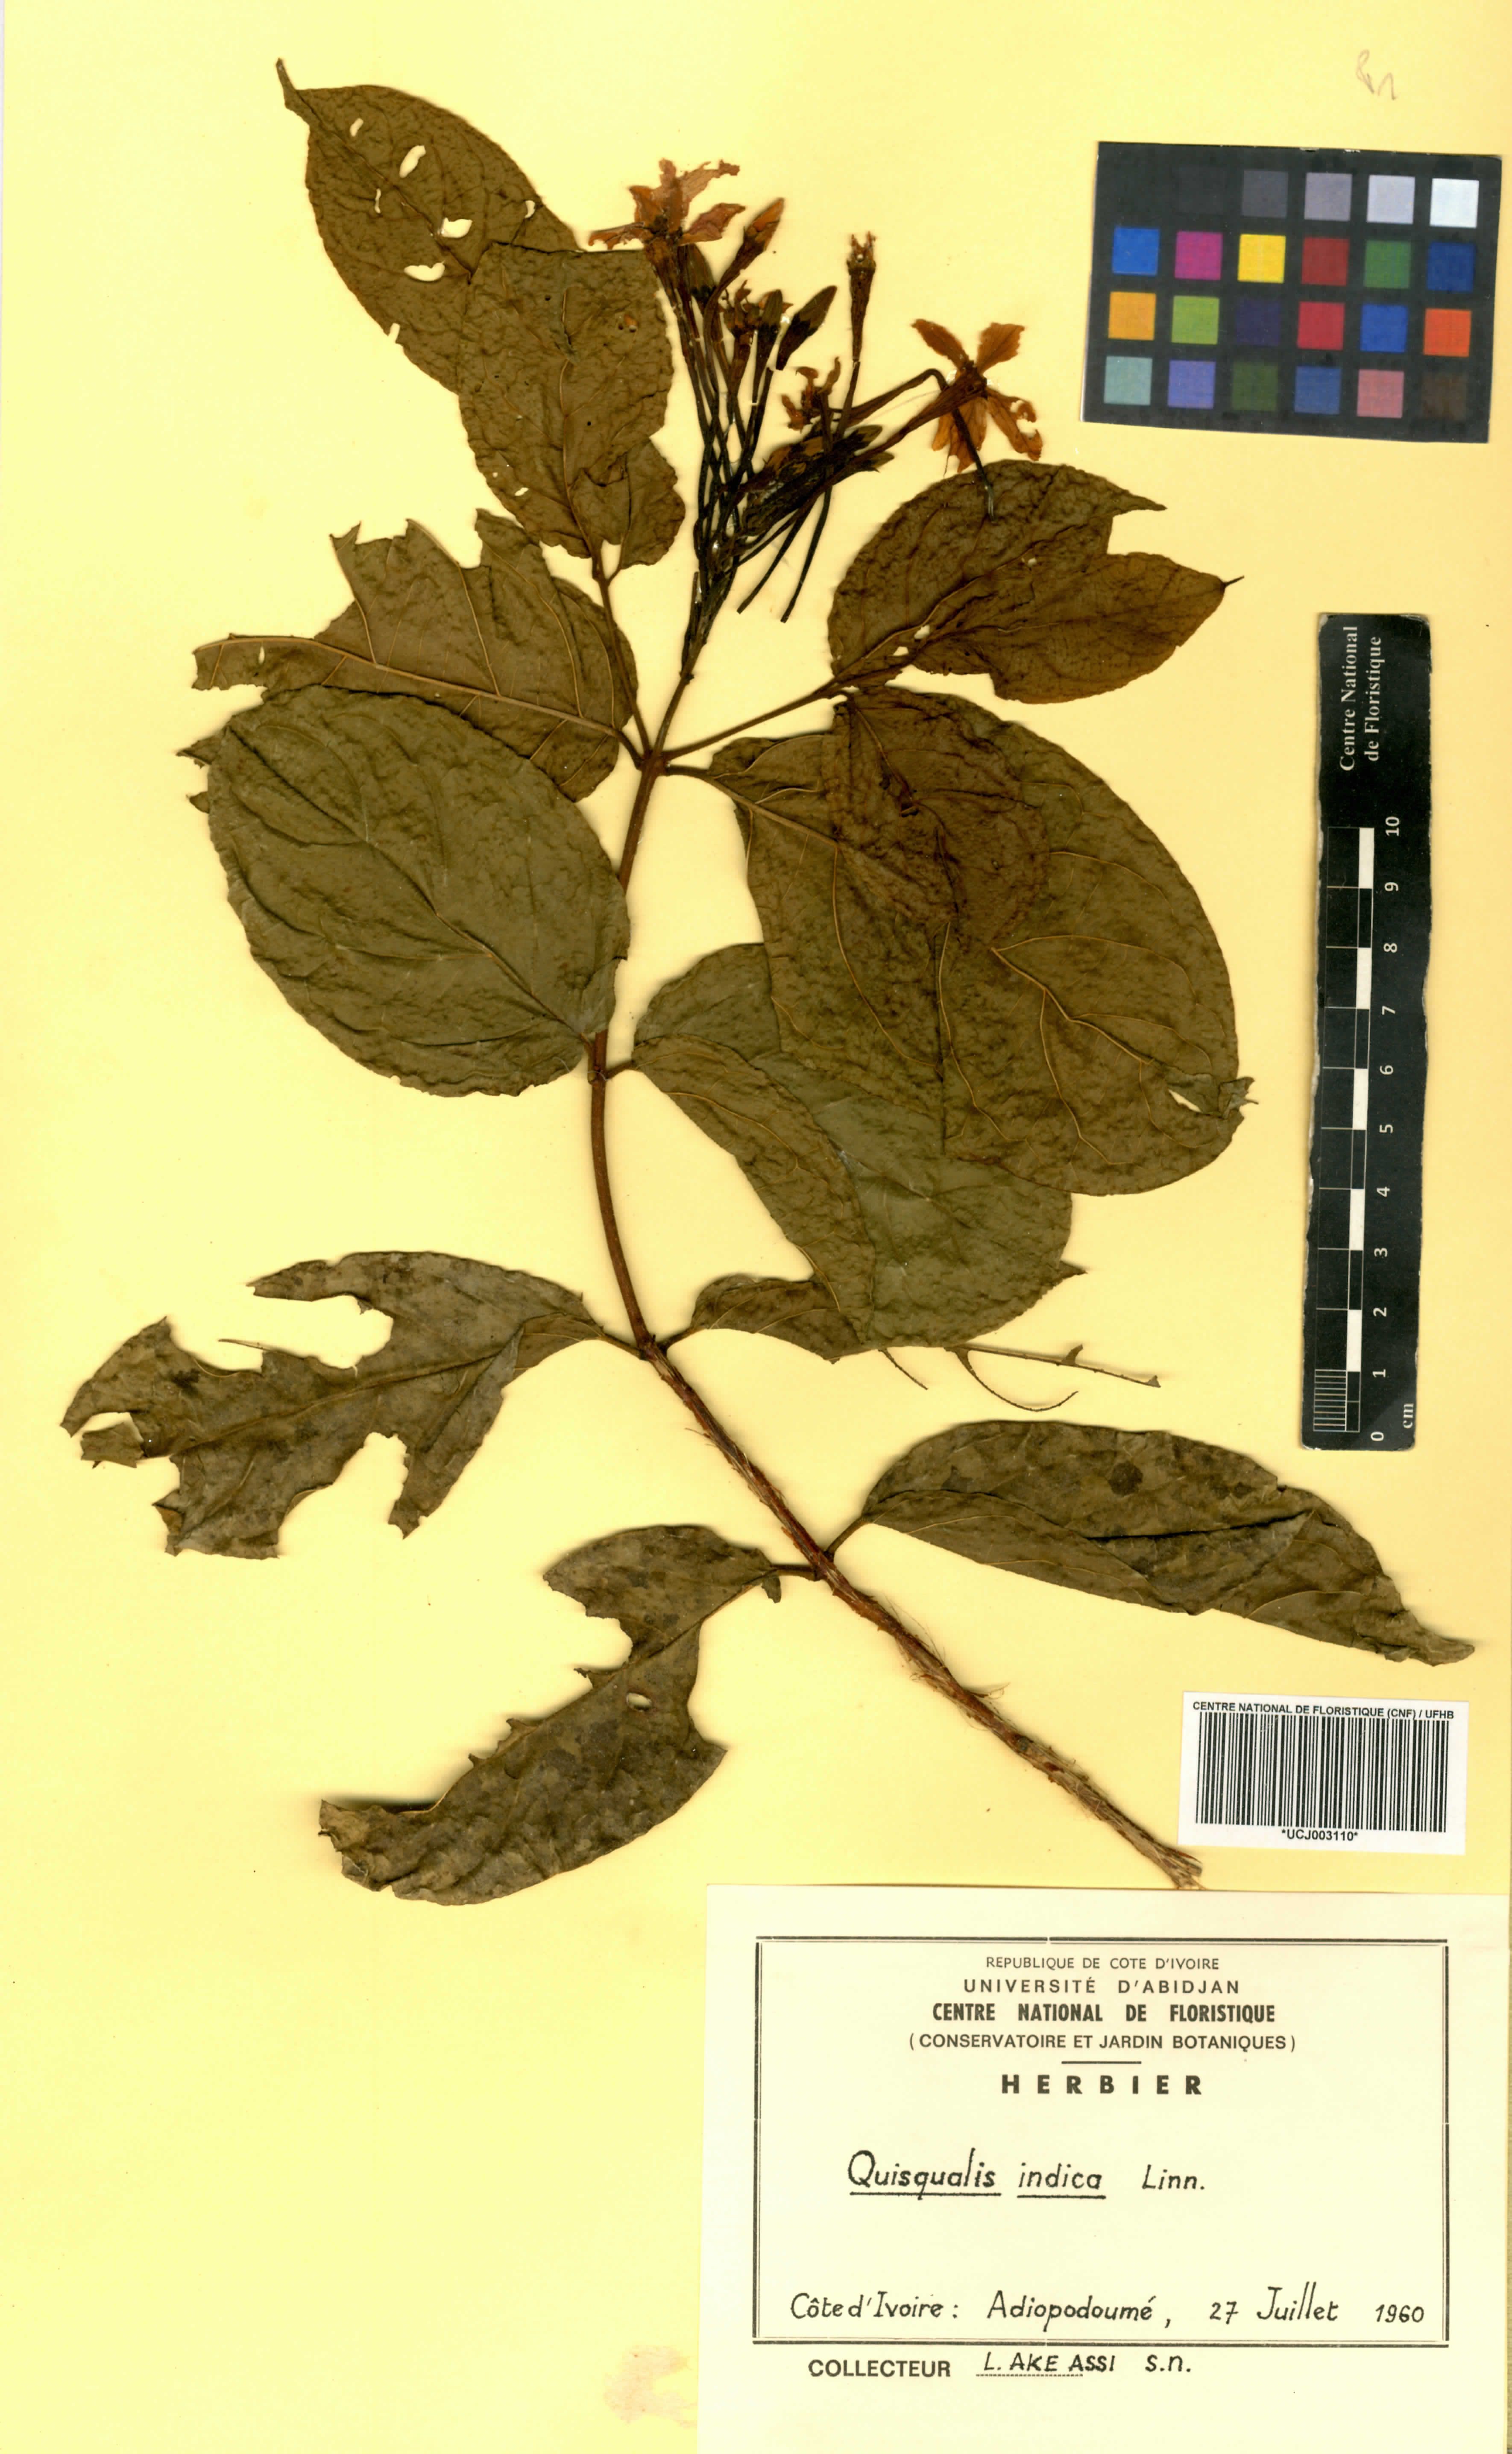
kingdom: Plantae
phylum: Tracheophyta
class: Magnoliopsida
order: Myrtales
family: Combretaceae
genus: Combretum
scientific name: Combretum indicum
